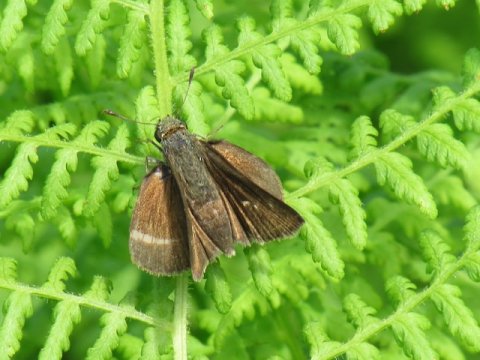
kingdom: Animalia
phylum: Arthropoda
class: Insecta
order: Lepidoptera
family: Hesperiidae
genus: Euphyes
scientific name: Euphyes vestris
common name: Dun Skipper
